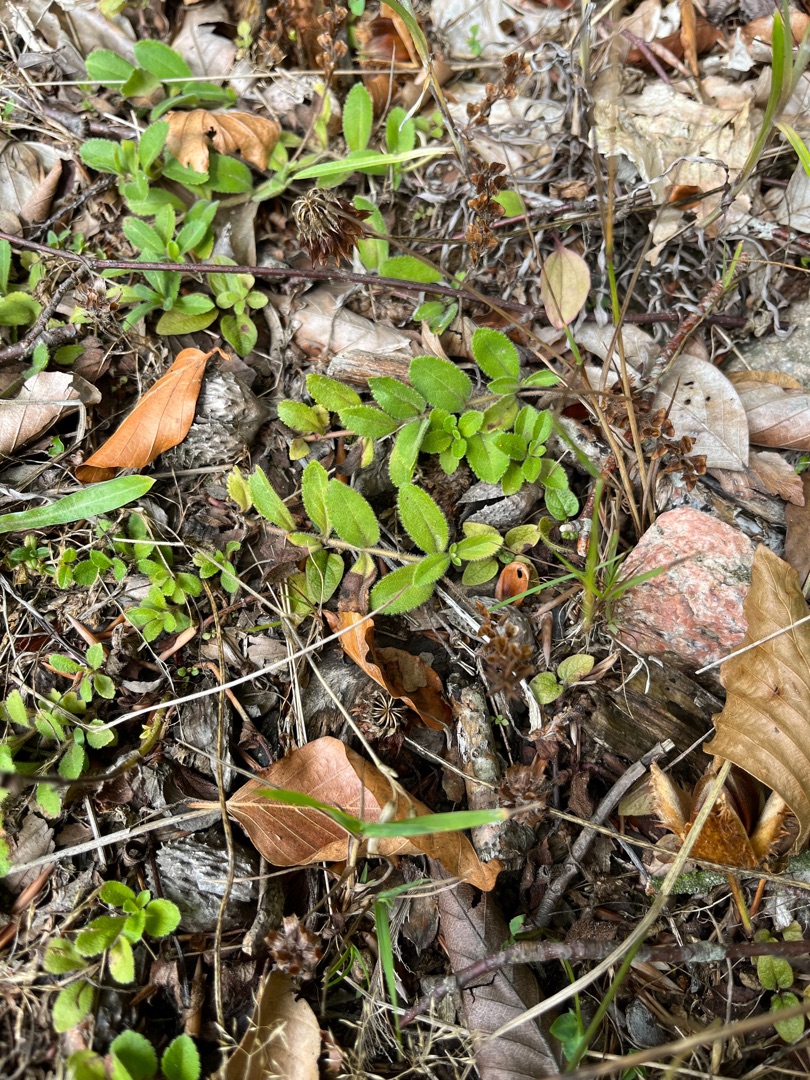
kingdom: Plantae
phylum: Tracheophyta
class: Magnoliopsida
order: Lamiales
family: Plantaginaceae
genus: Veronica
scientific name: Veronica officinalis
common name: Læge-ærenpris
